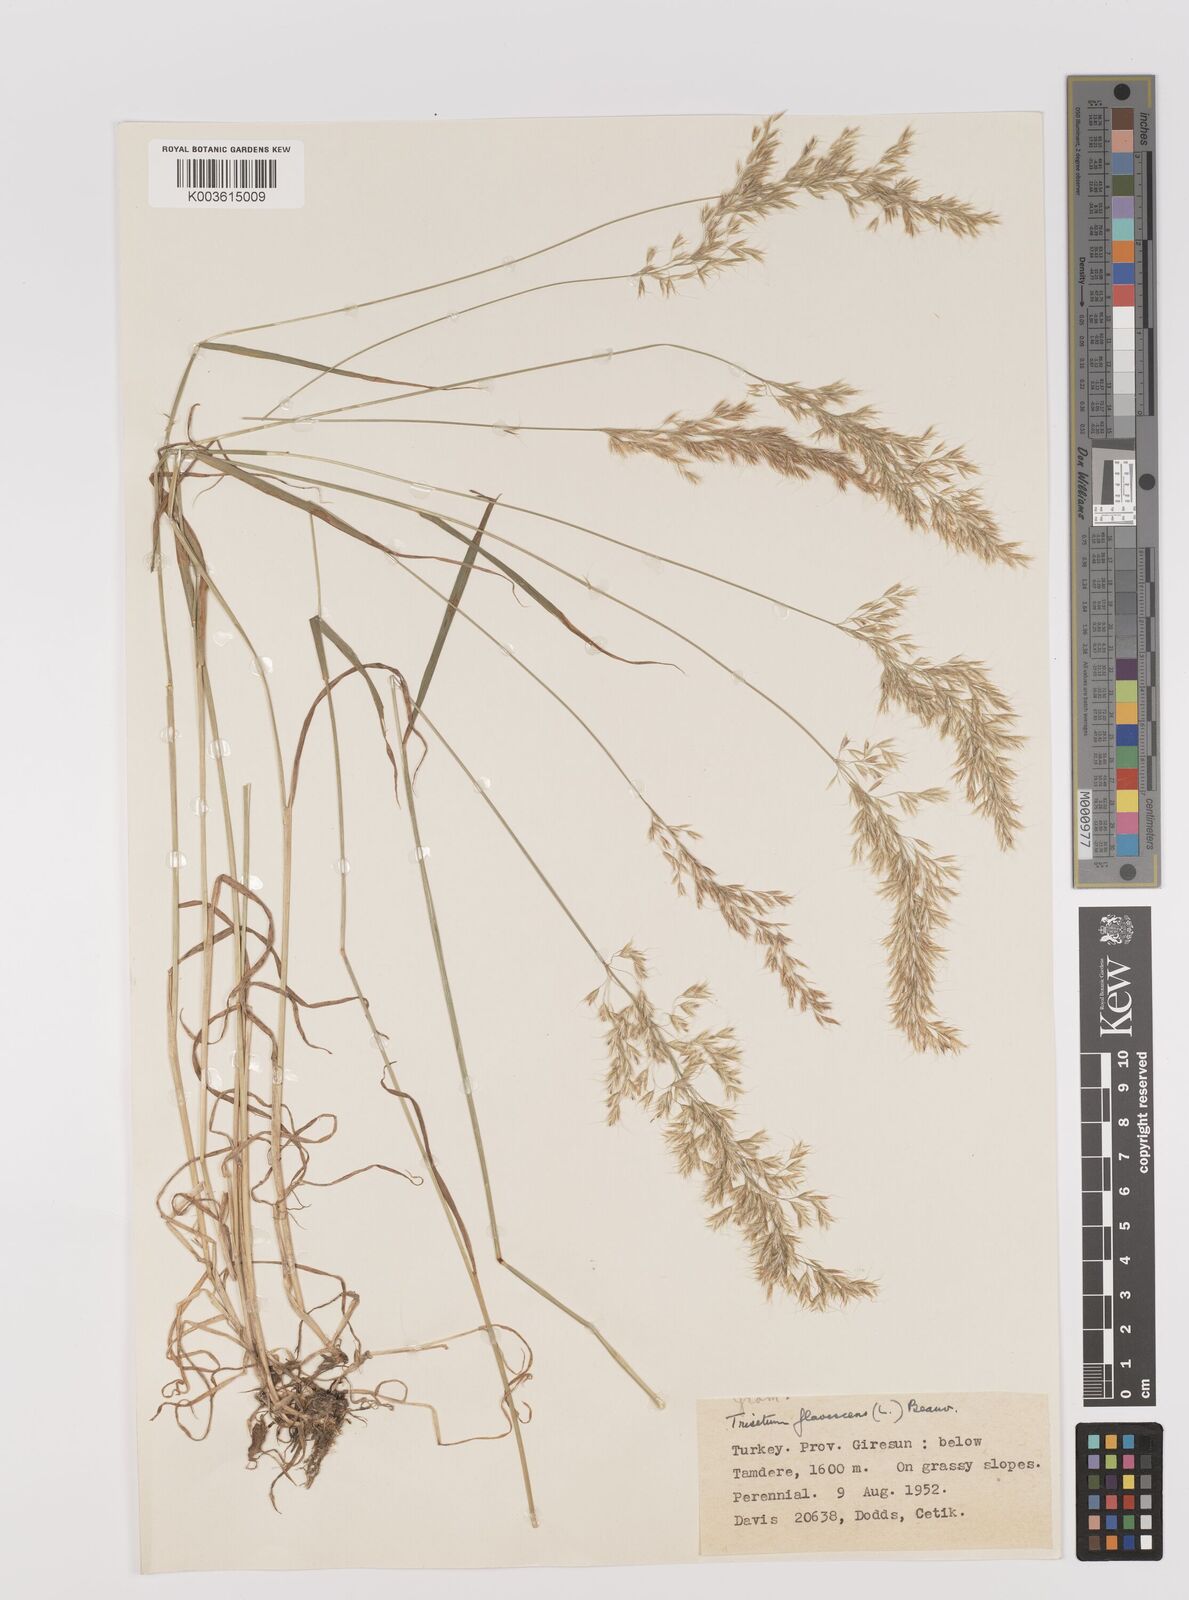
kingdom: Plantae
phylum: Tracheophyta
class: Liliopsida
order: Poales
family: Poaceae
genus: Trisetum
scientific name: Trisetum flavescens
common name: Yellow oat-grass
